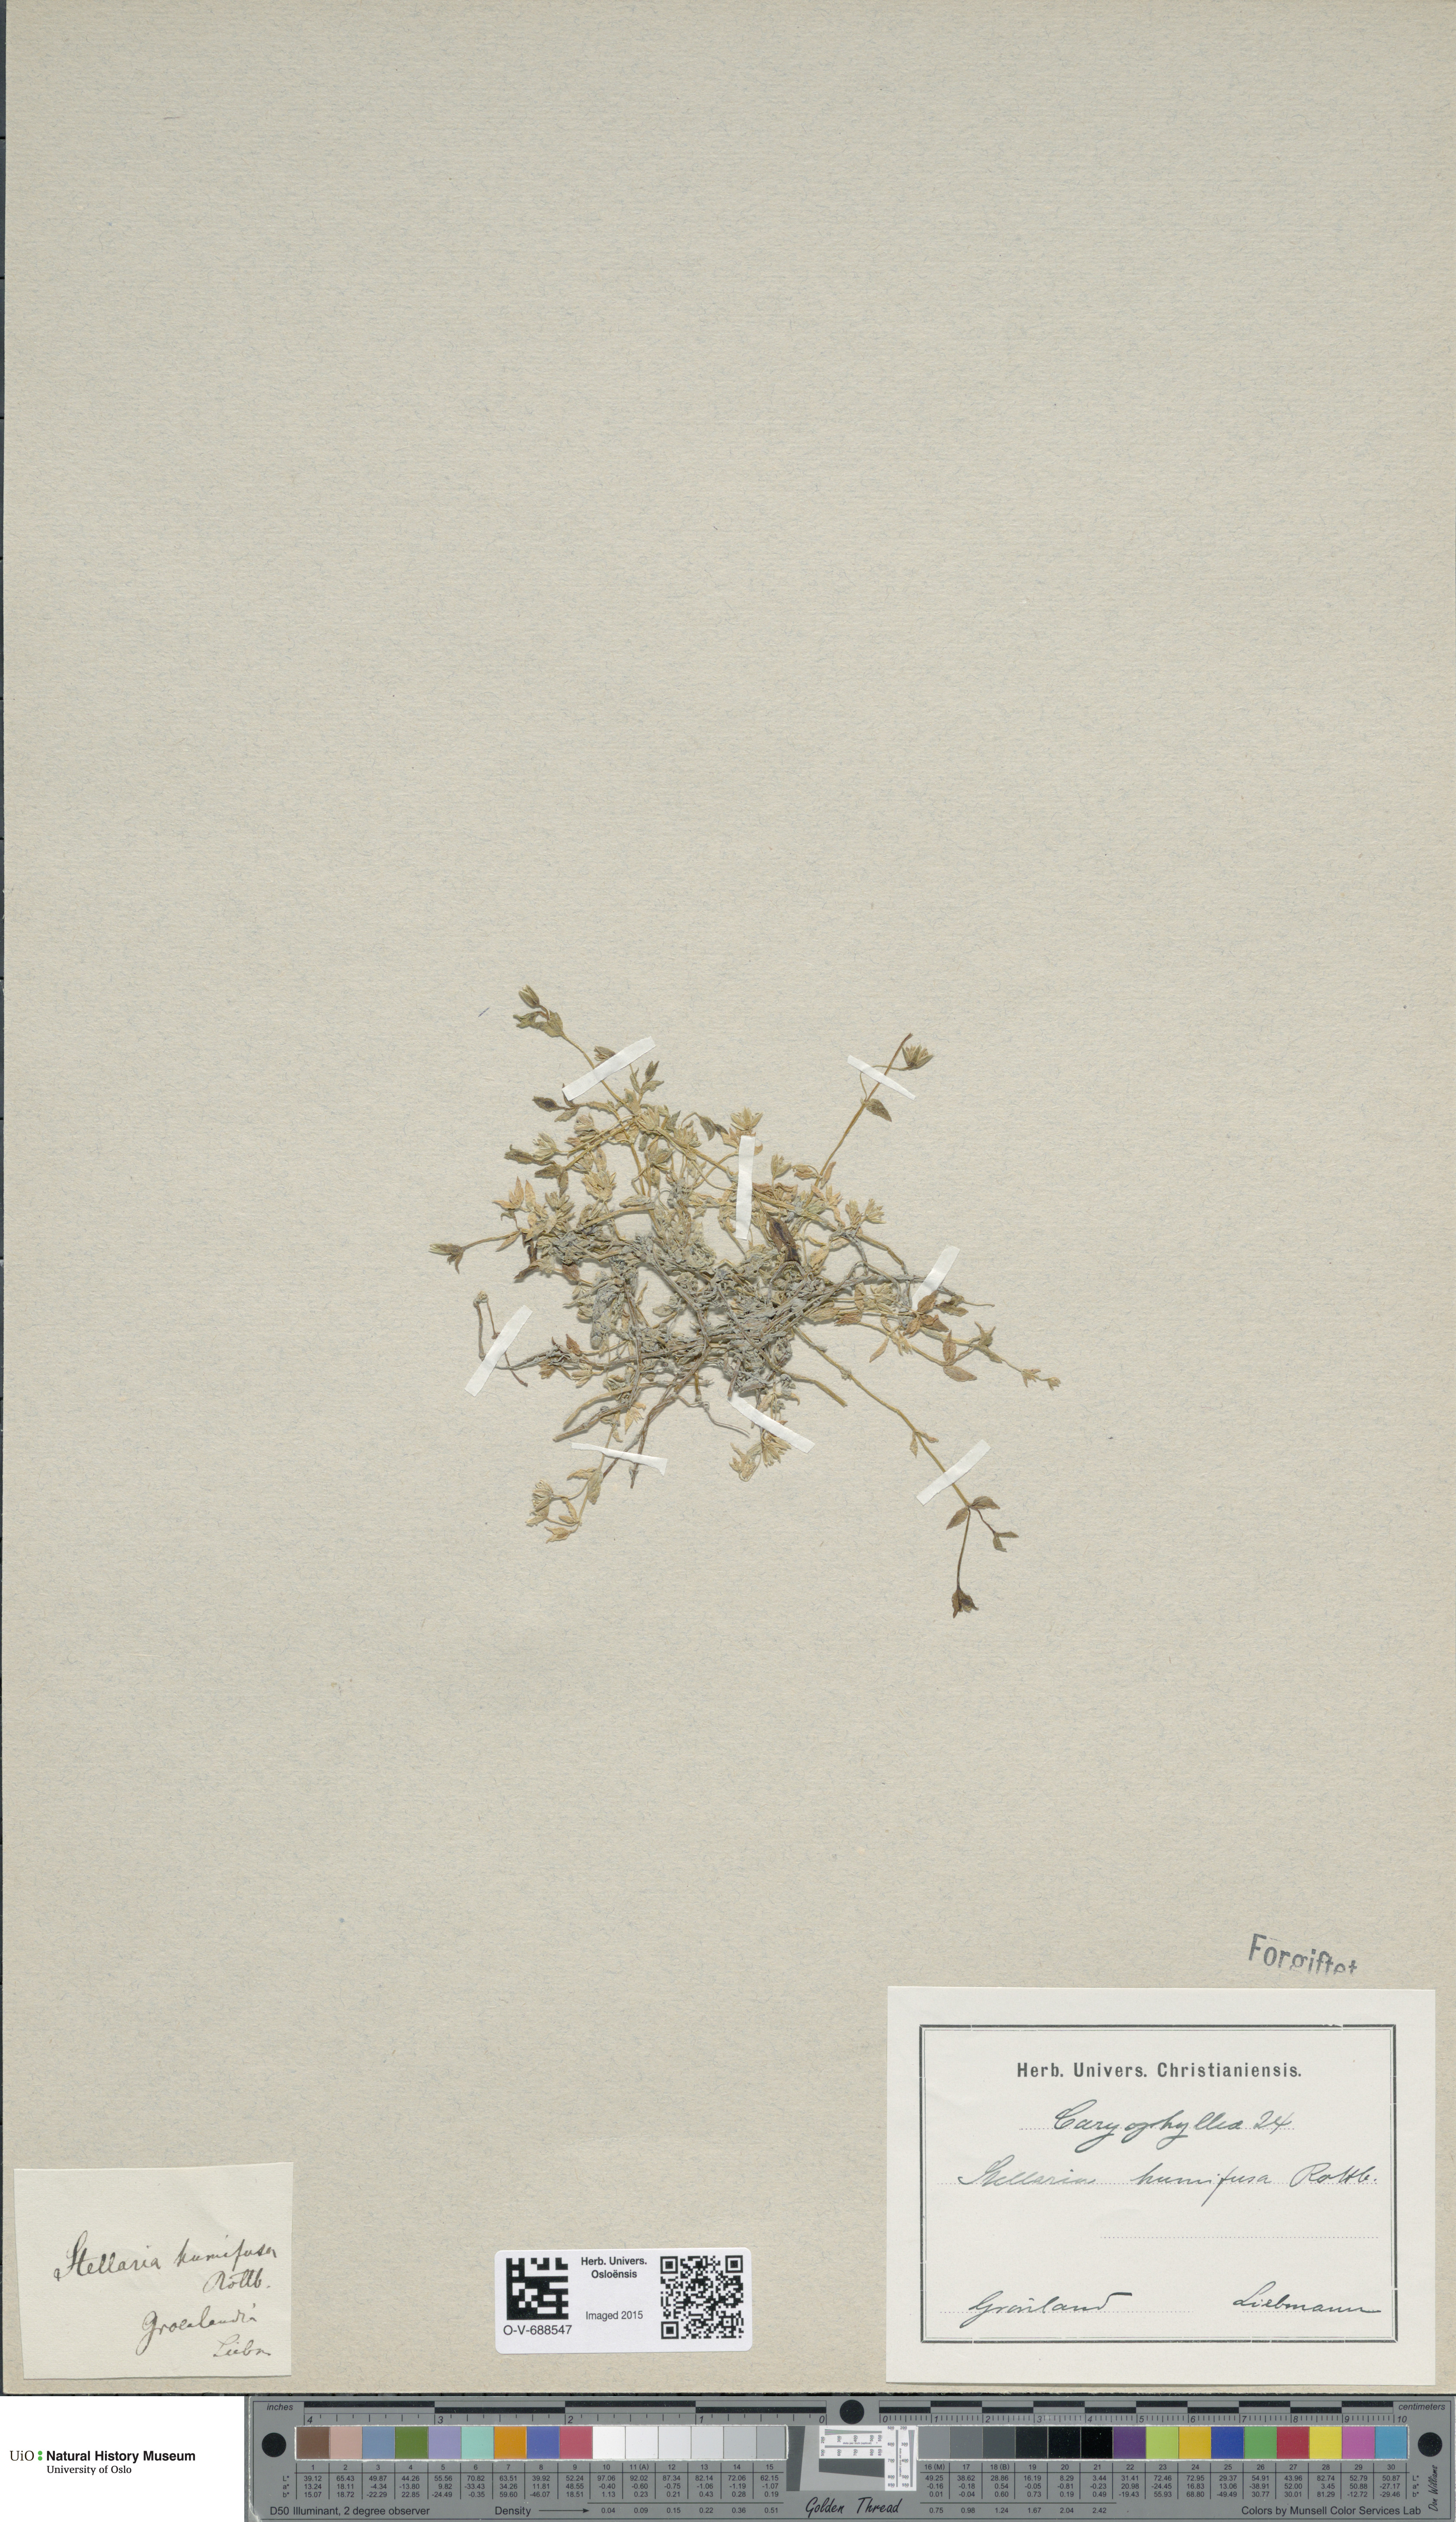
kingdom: Plantae
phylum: Tracheophyta
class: Magnoliopsida
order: Caryophyllales
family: Caryophyllaceae
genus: Stellaria
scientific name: Stellaria humifusa
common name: Creeping starwort
